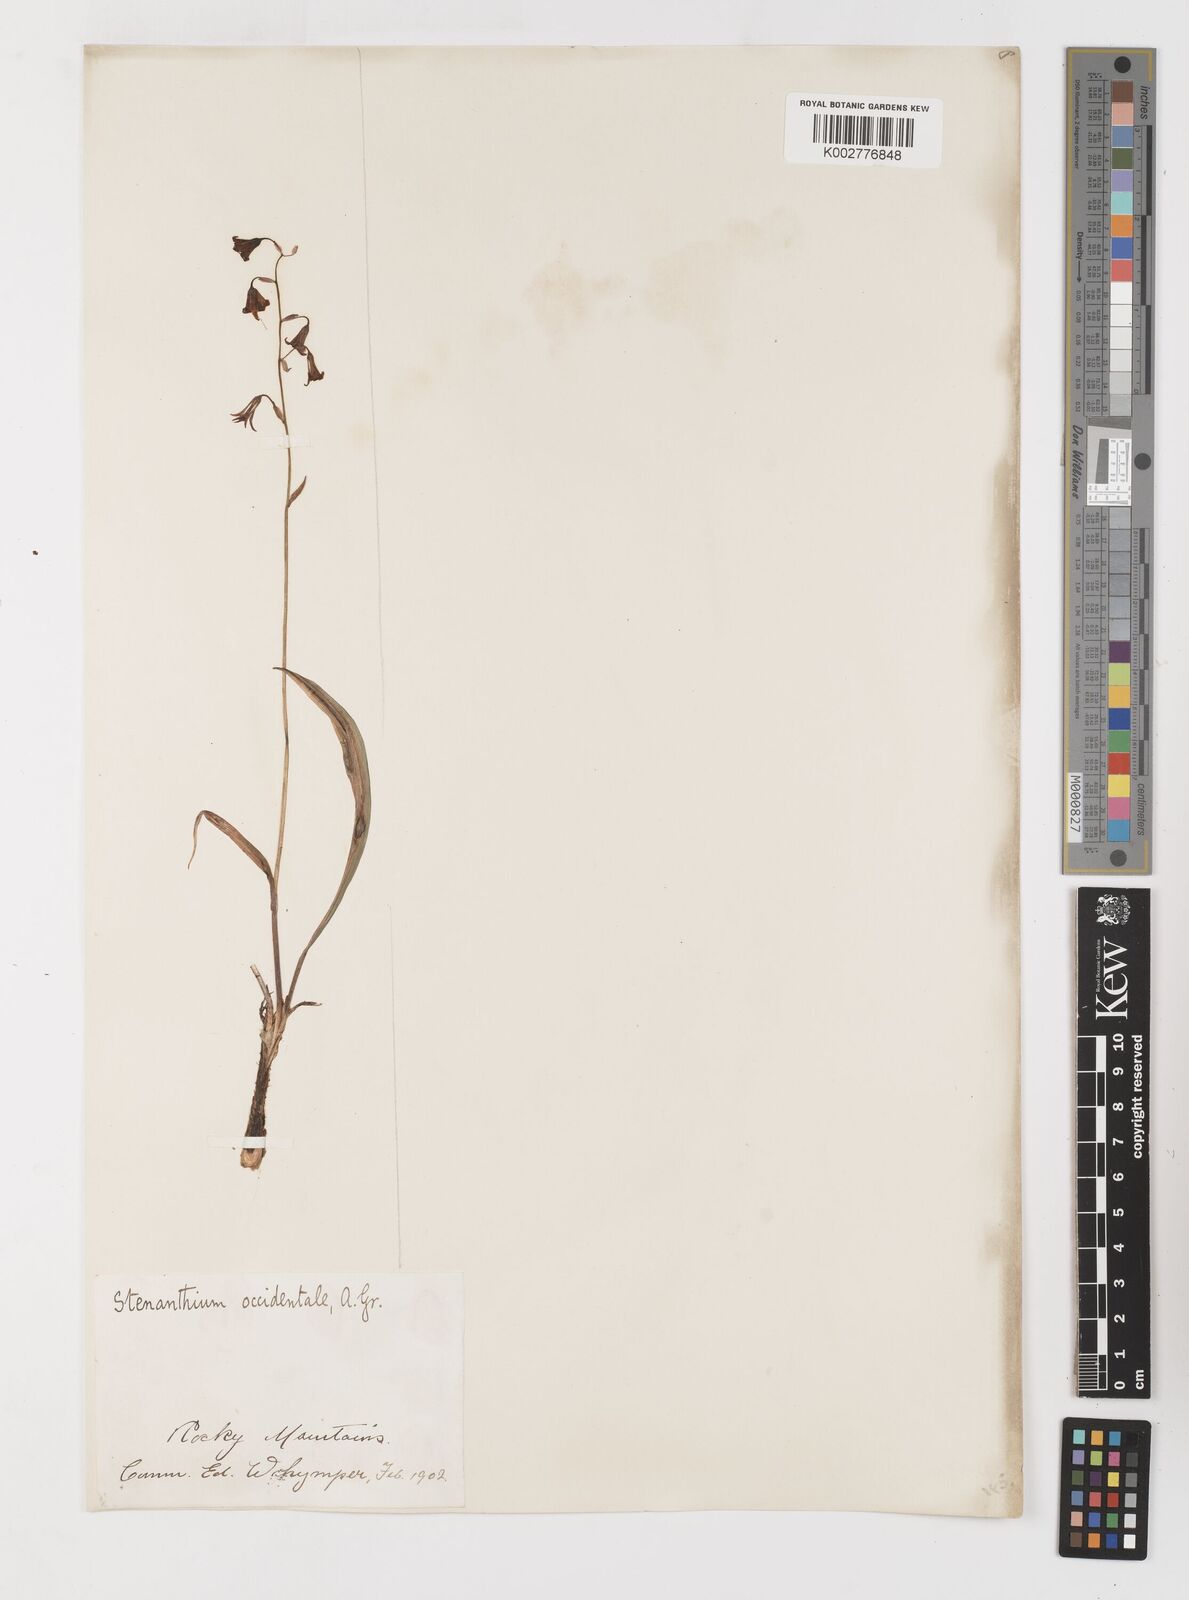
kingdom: Plantae
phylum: Tracheophyta
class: Liliopsida
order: Liliales
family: Melanthiaceae
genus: Anticlea
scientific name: Anticlea occidentalis
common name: Bronze-bells
